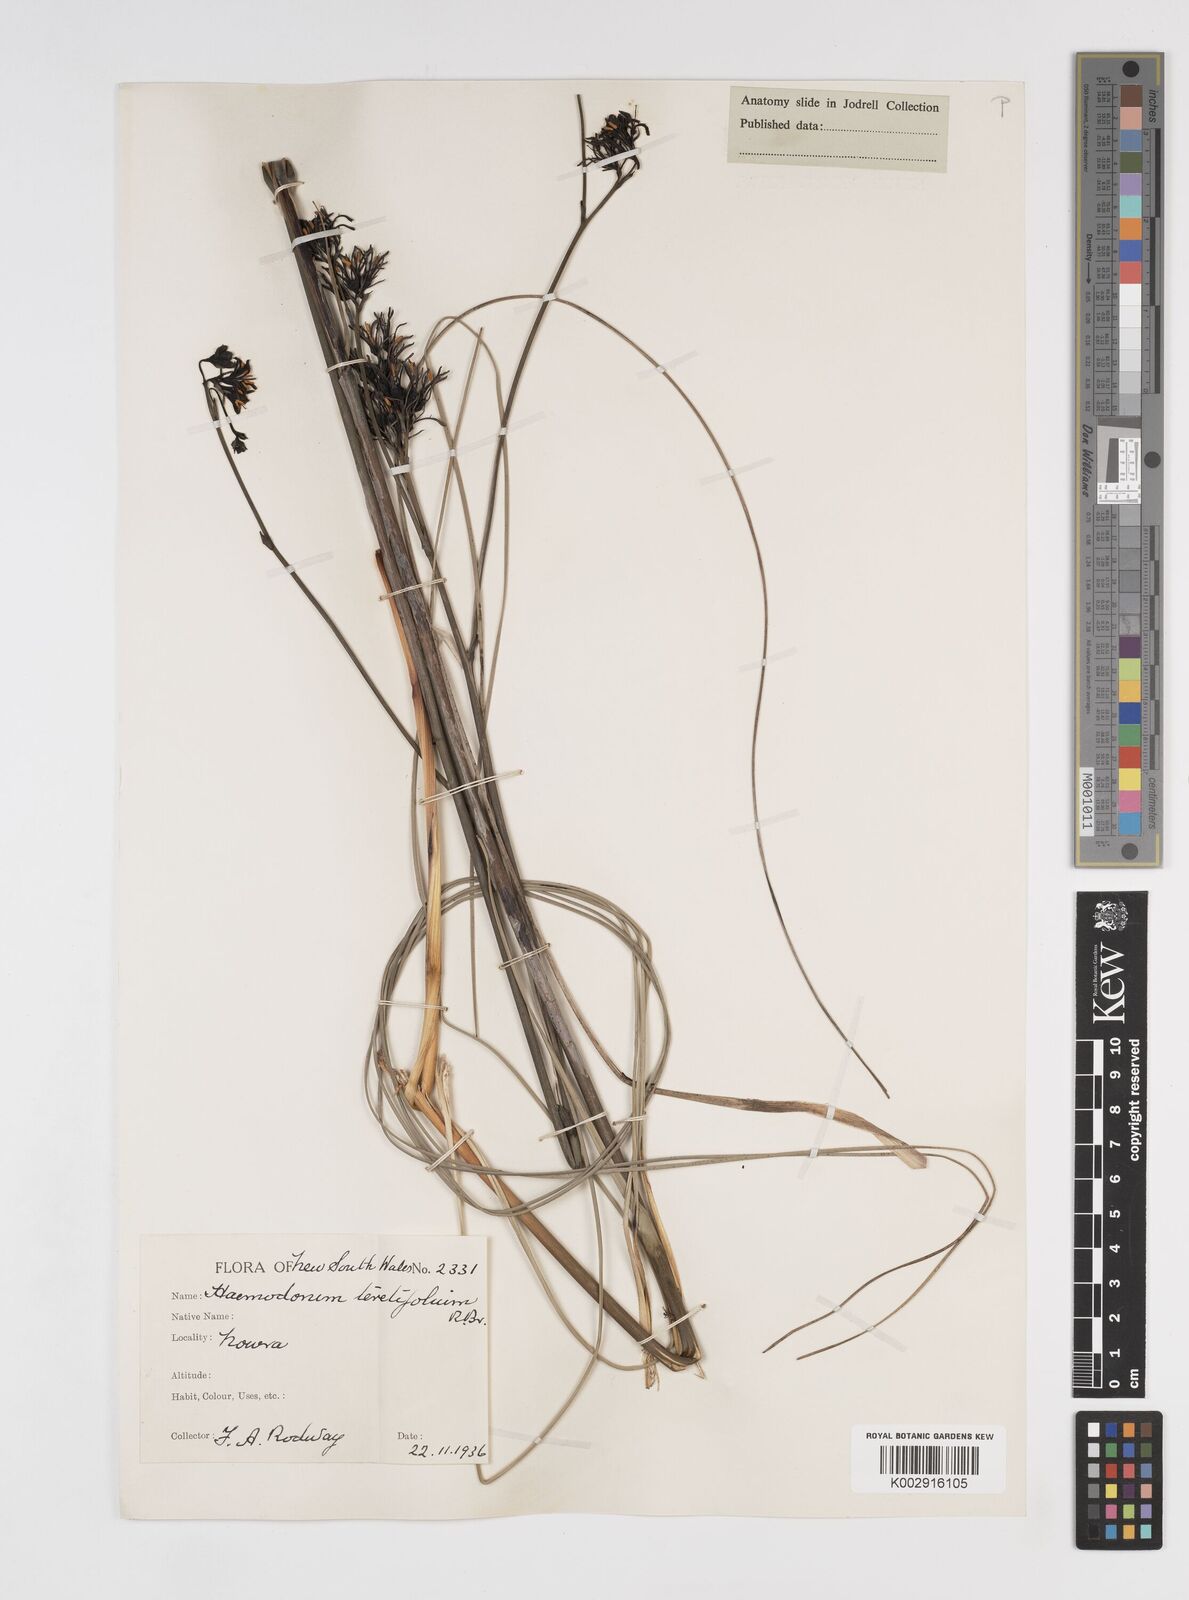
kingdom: Plantae
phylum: Tracheophyta
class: Liliopsida
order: Commelinales
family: Haemodoraceae
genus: Haemodorum
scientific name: Haemodorum corymbosum
